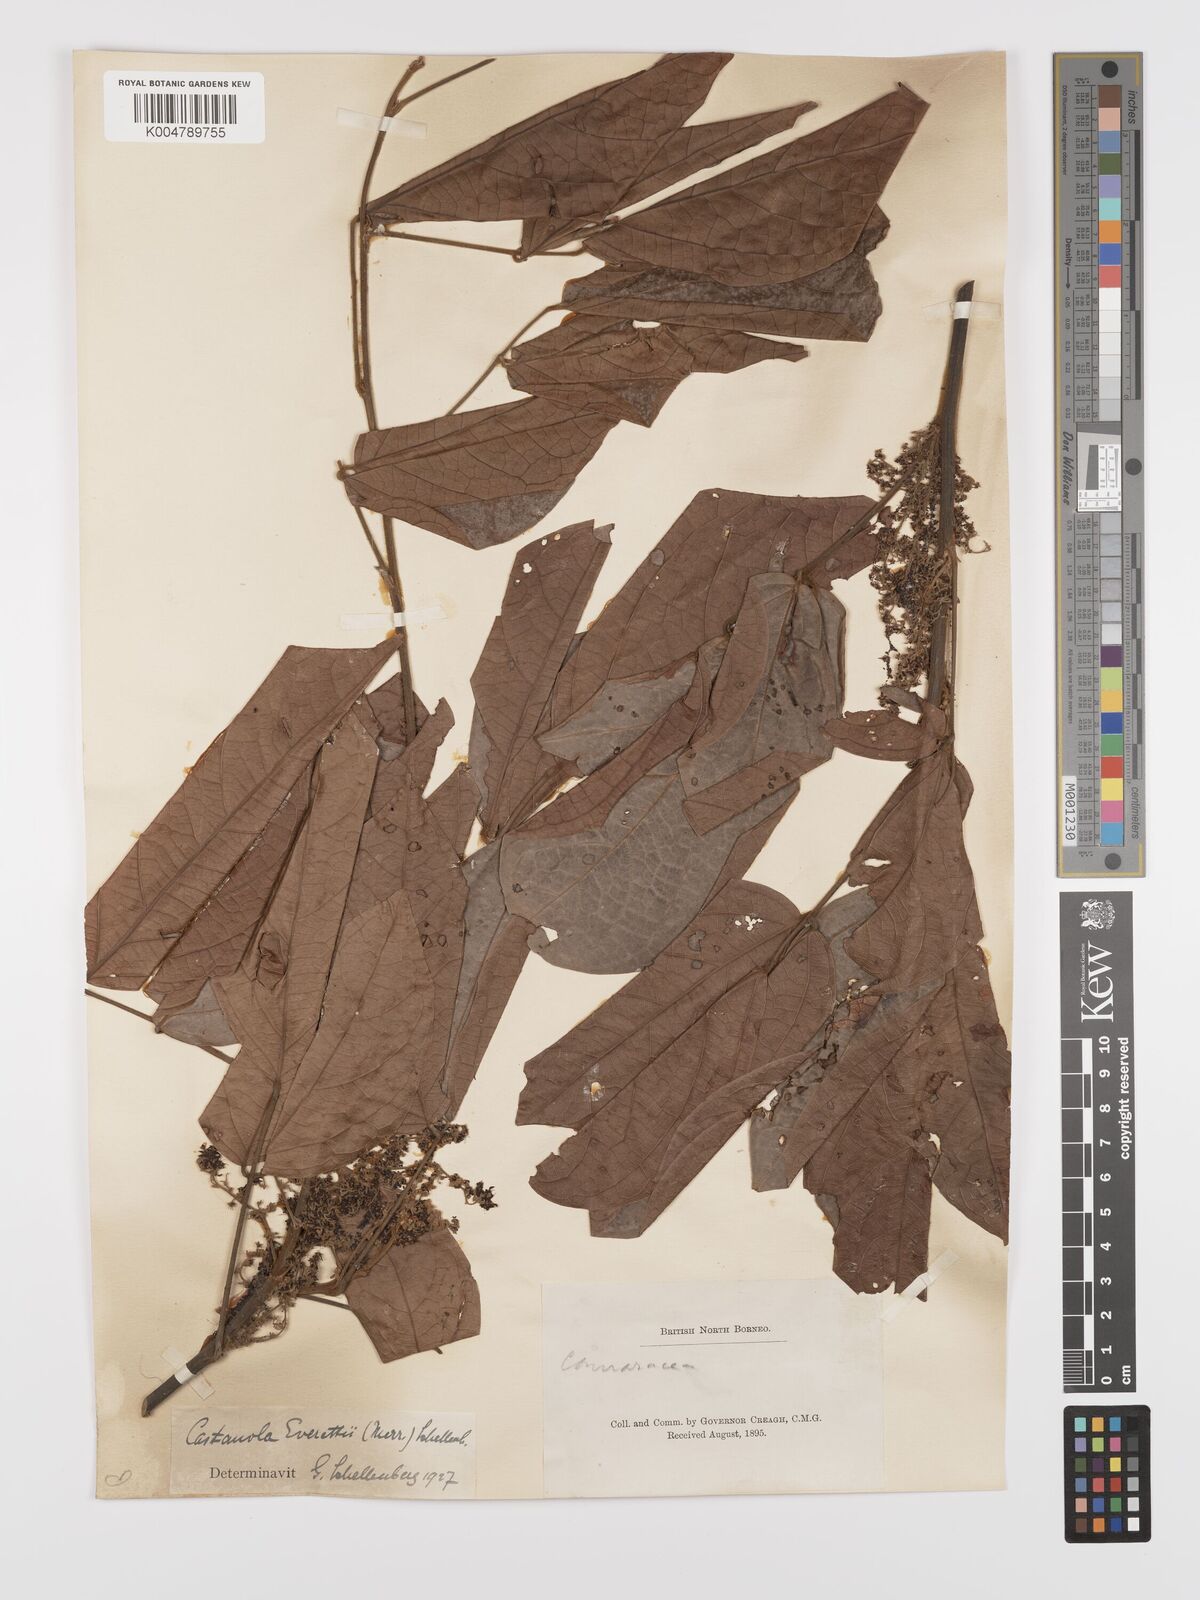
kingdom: Plantae
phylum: Tracheophyta
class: Magnoliopsida
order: Oxalidales
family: Connaraceae
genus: Agelaea
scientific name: Agelaea borneensis
